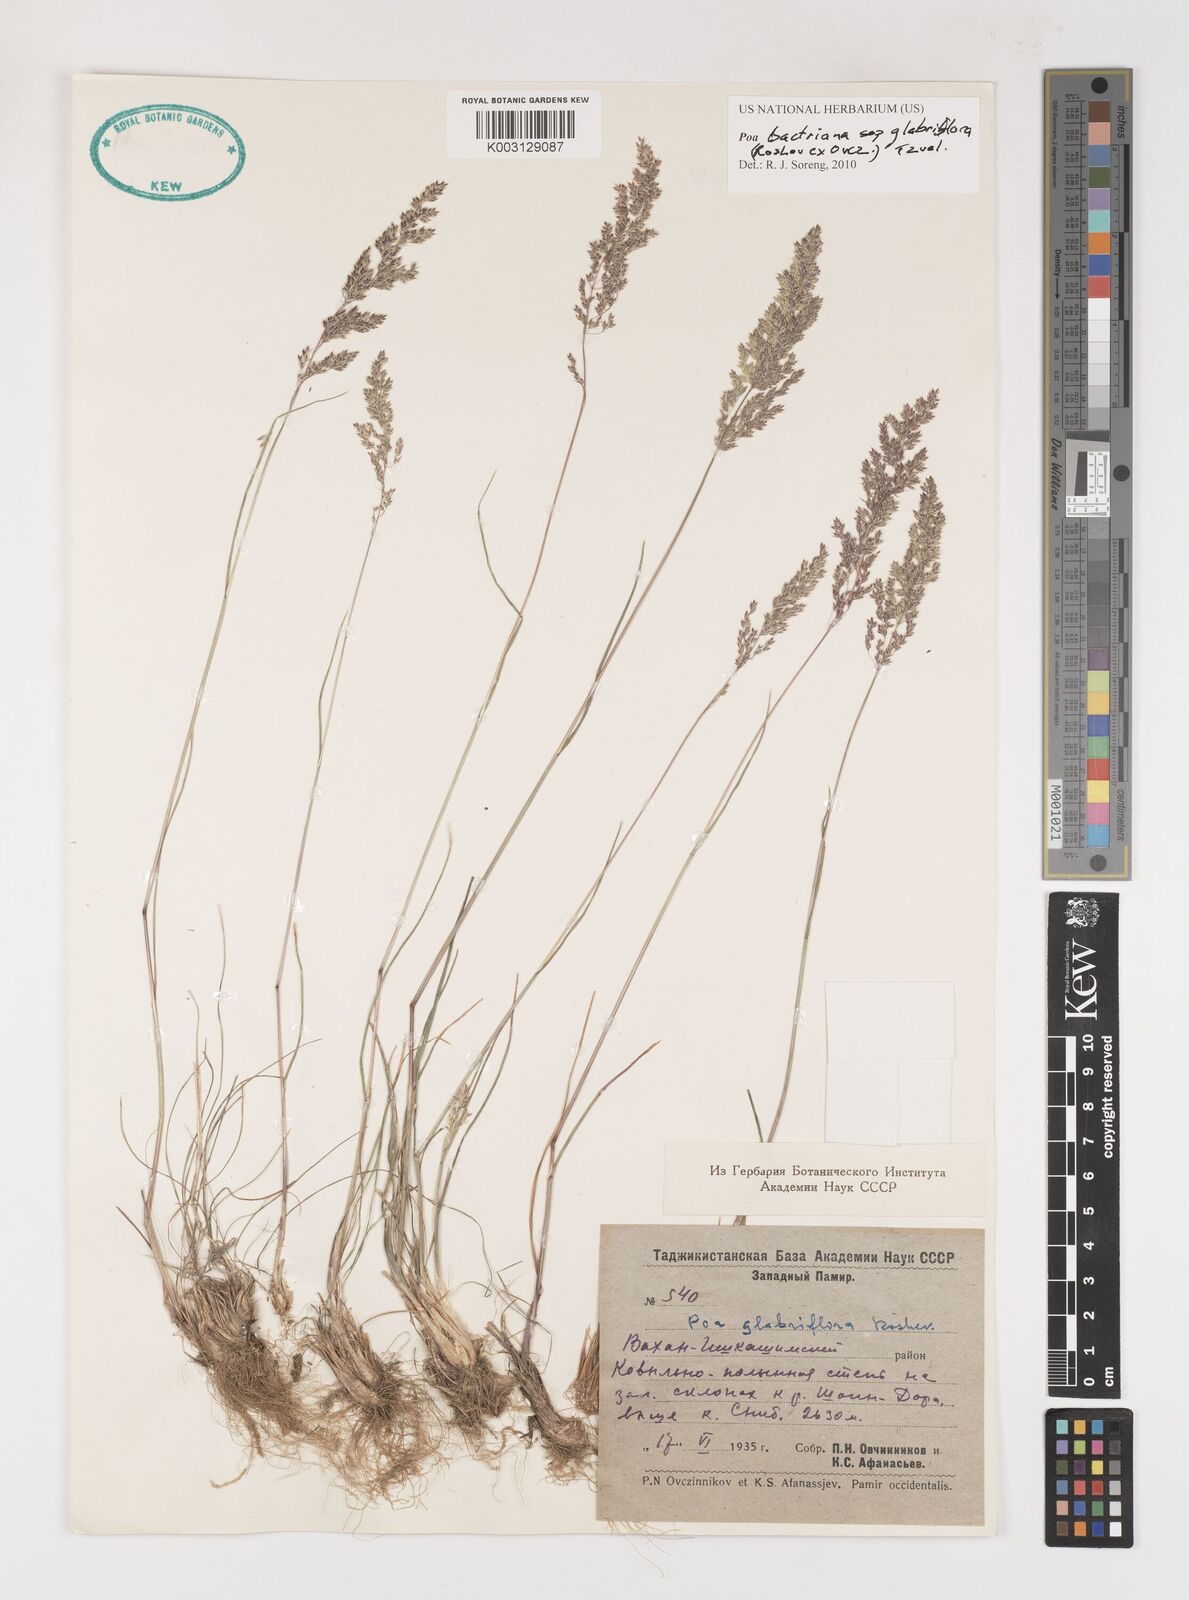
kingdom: Plantae
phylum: Tracheophyta
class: Liliopsida
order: Poales
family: Poaceae
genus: Poa
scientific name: Poa bactriana
